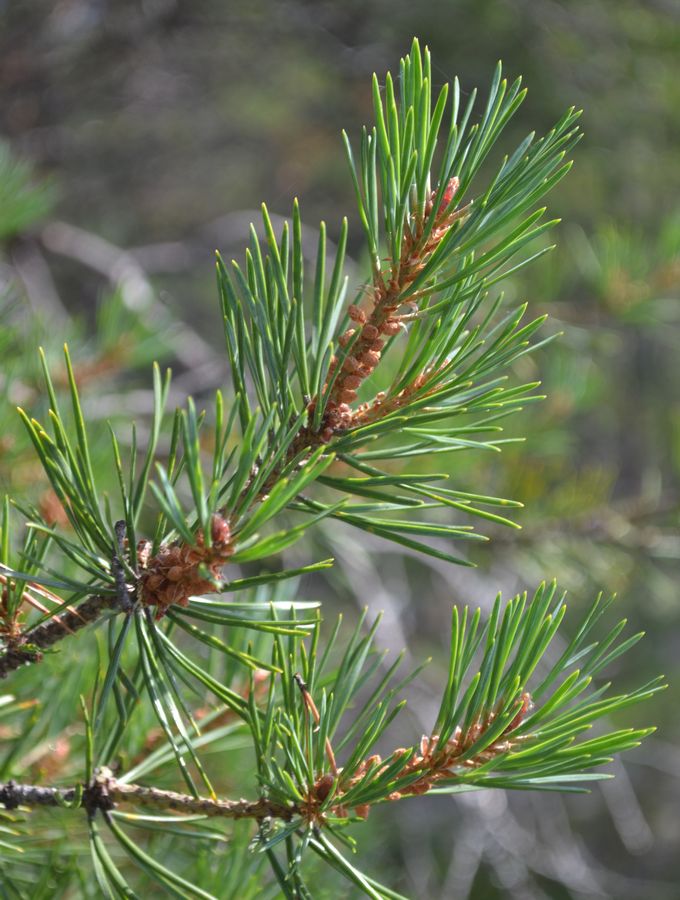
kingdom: Plantae
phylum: Tracheophyta
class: Pinopsida
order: Pinales
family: Pinaceae
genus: Pinus
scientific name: Pinus sylvestris
